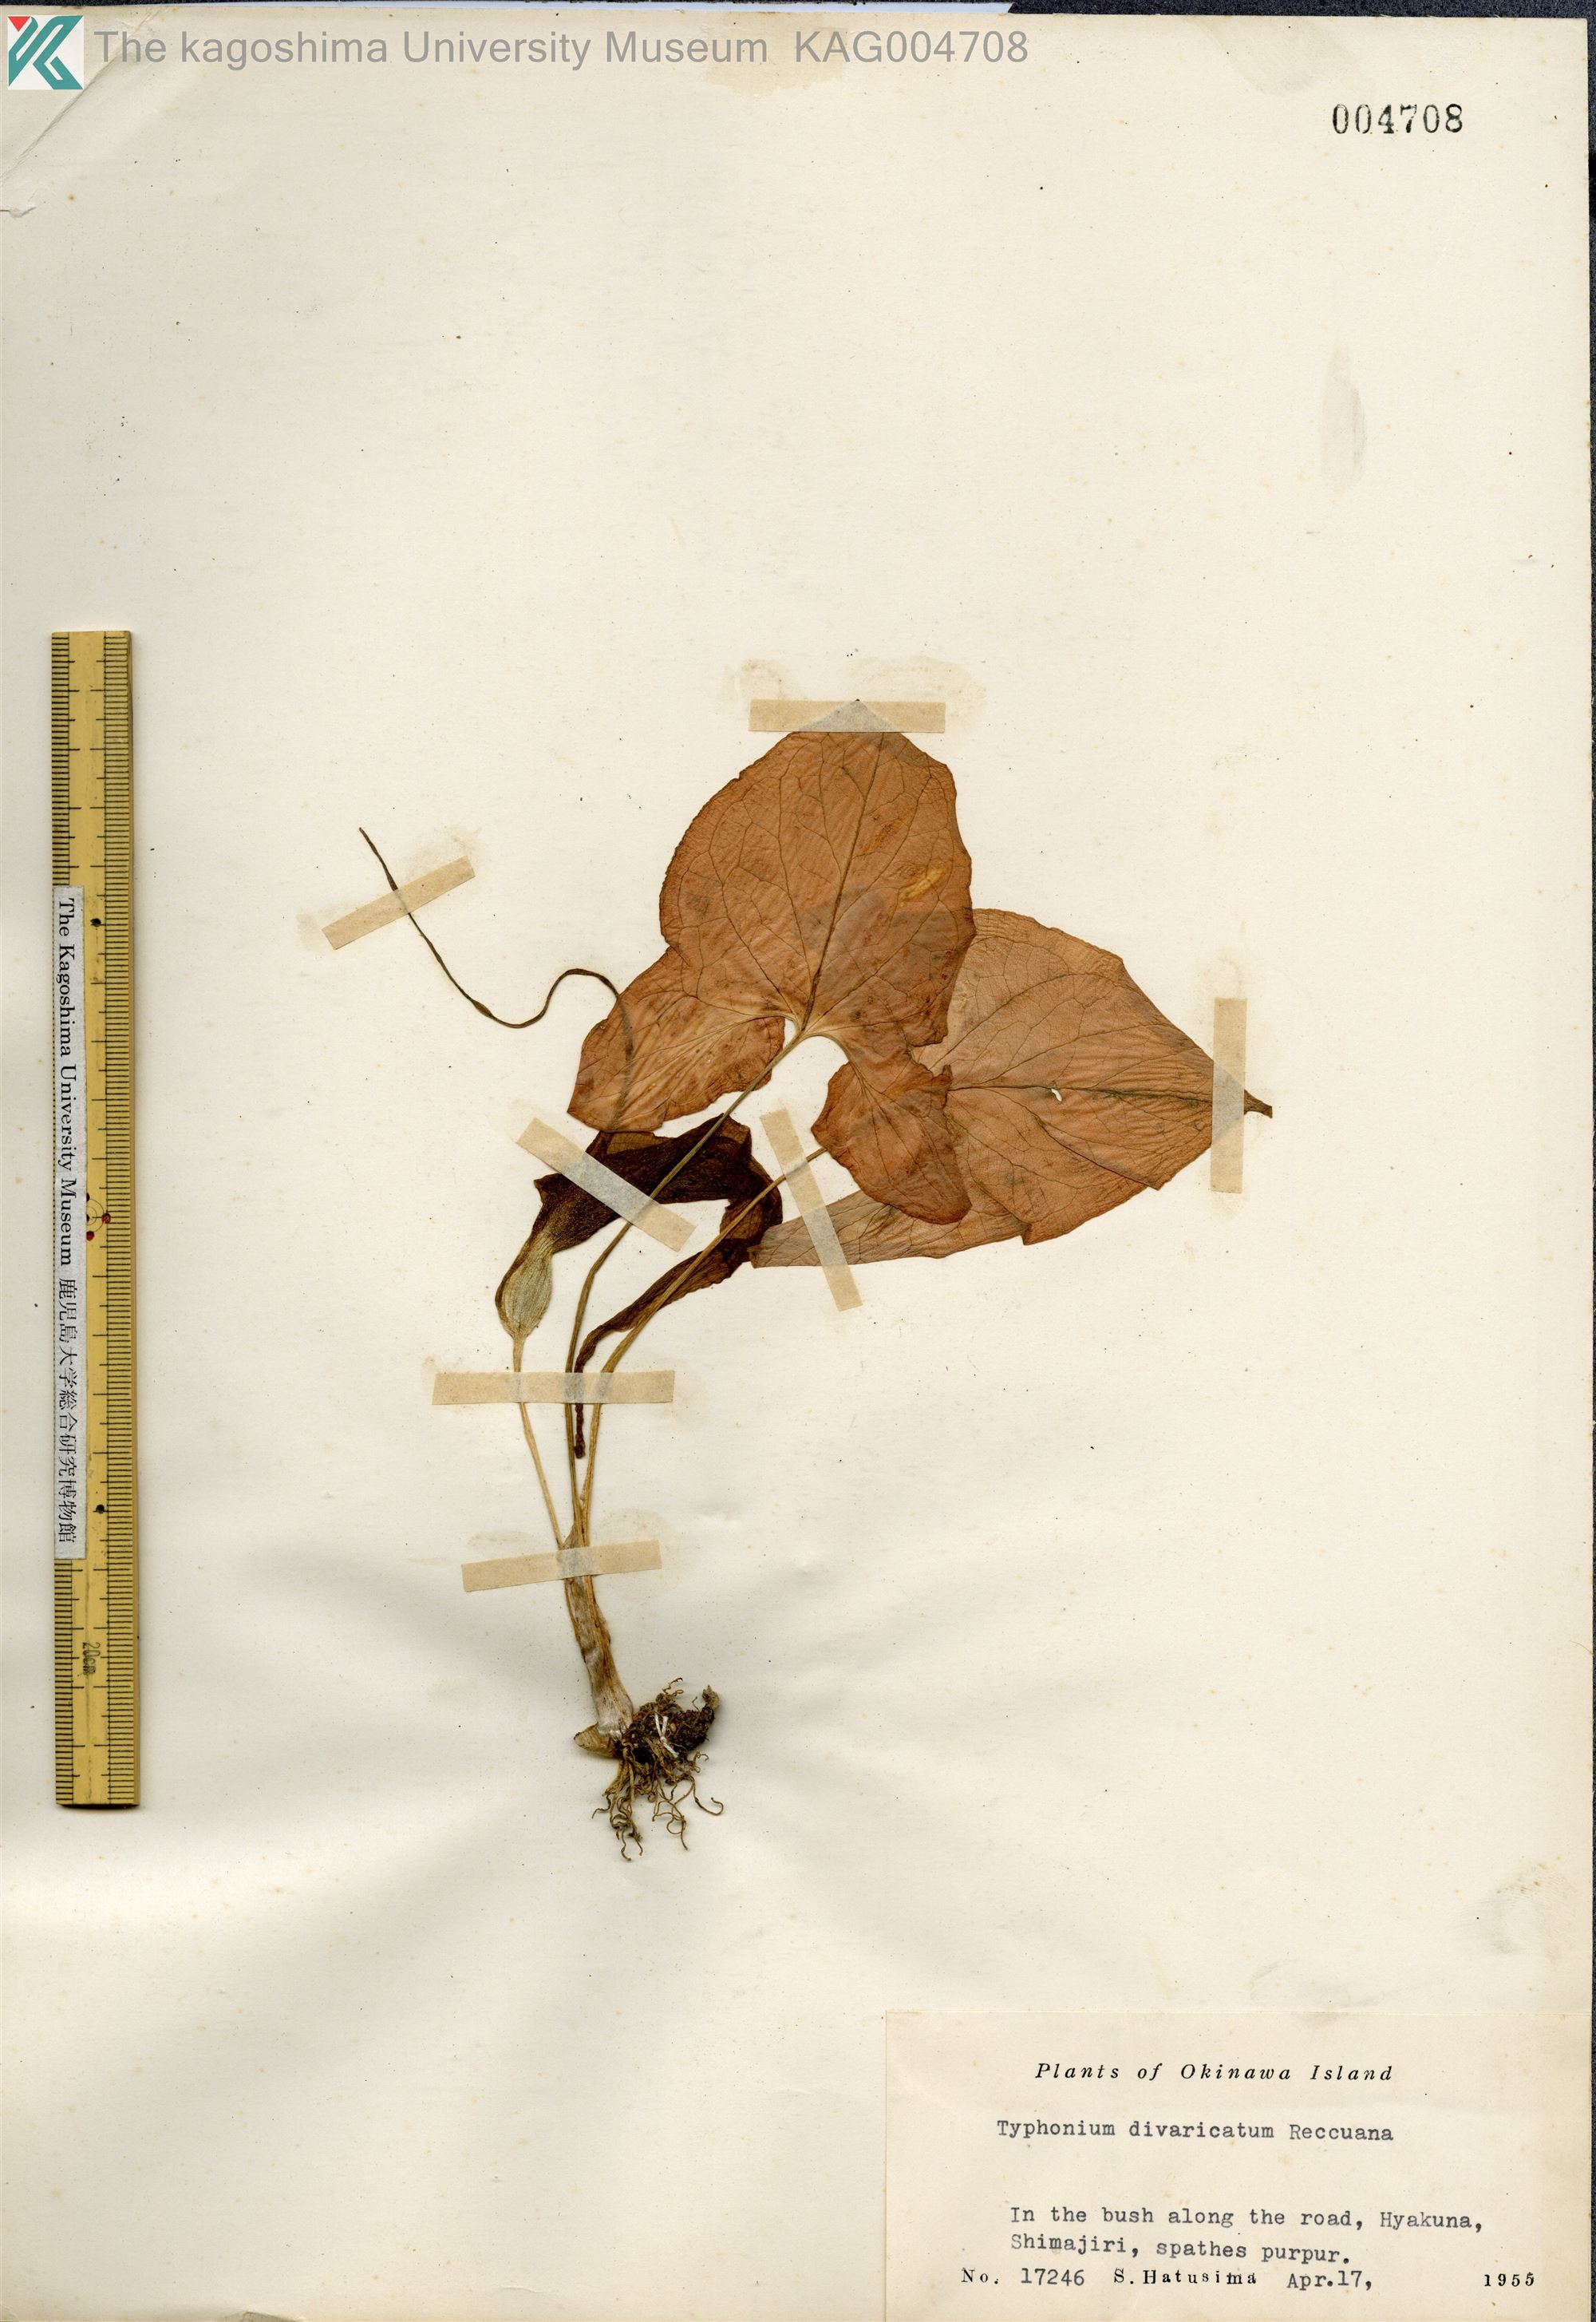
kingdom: Plantae
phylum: Tracheophyta
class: Liliopsida
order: Alismatales
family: Araceae
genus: Typhonium
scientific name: Typhonium
